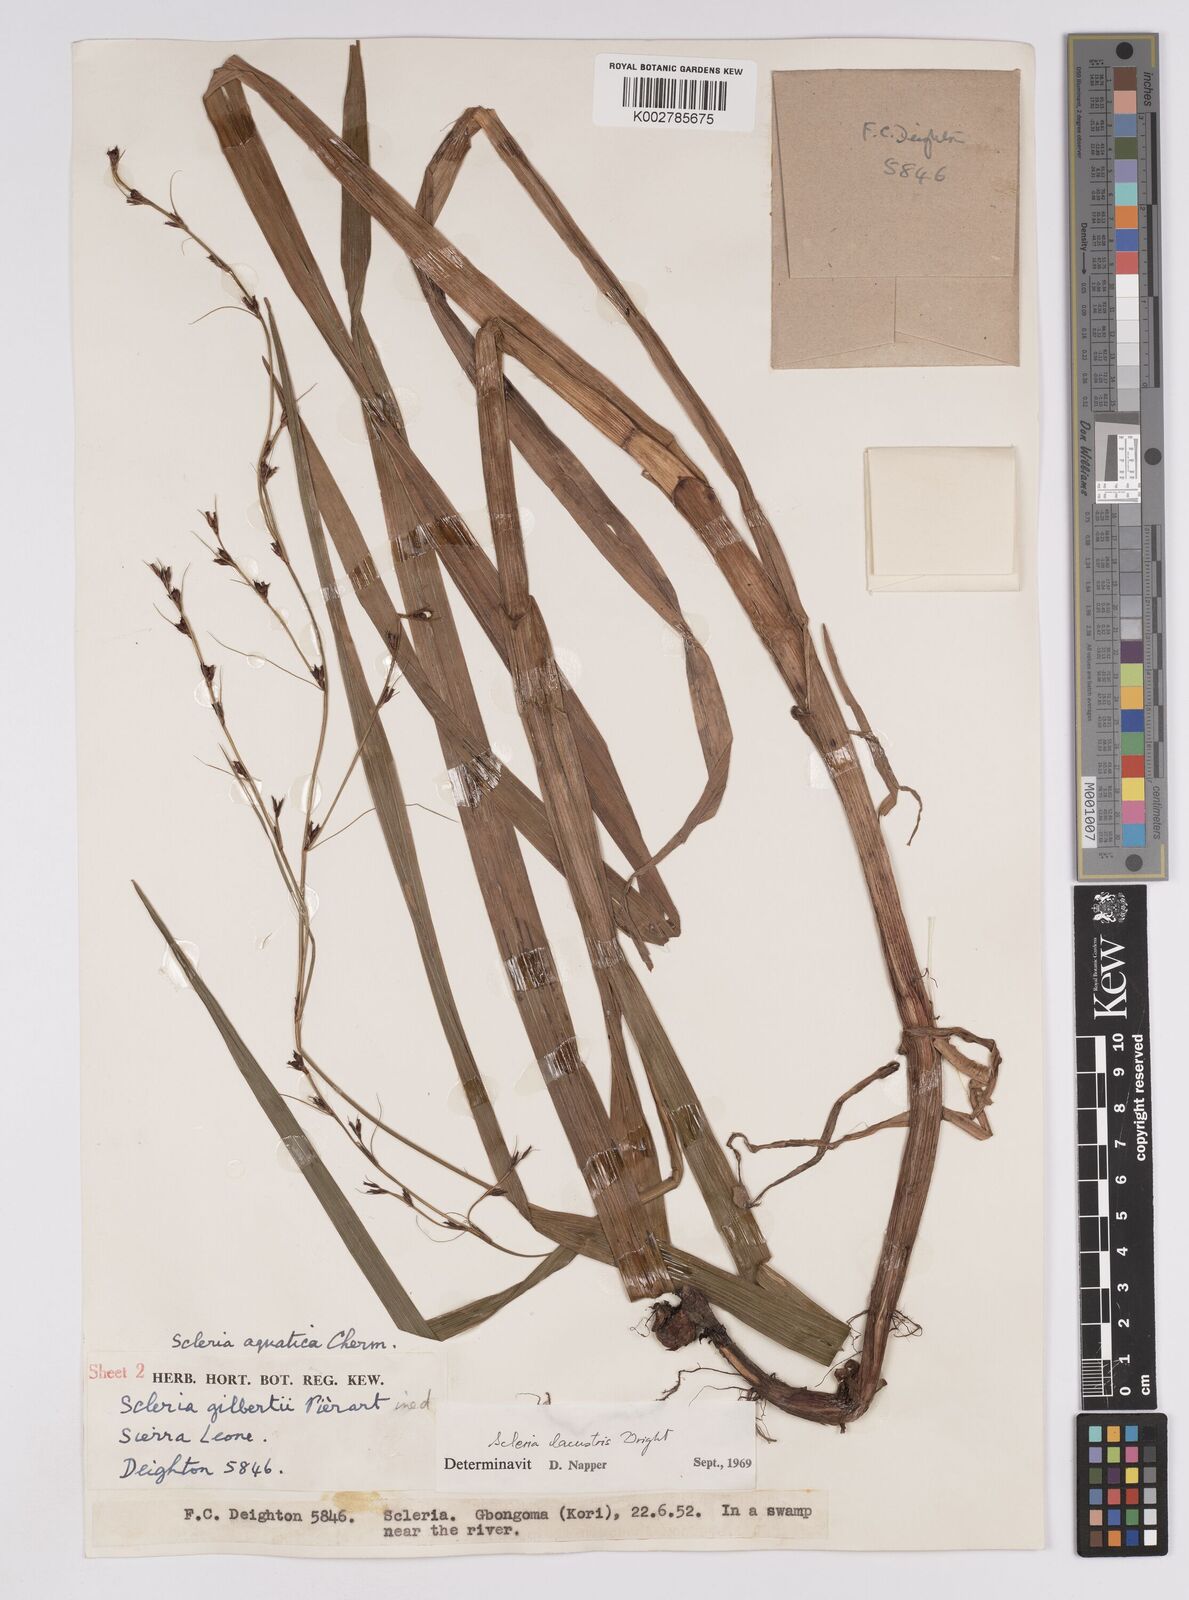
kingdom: Plantae
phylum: Tracheophyta
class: Liliopsida
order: Poales
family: Cyperaceae
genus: Scleria
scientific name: Scleria lacustris
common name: Lakeshore nutrush
